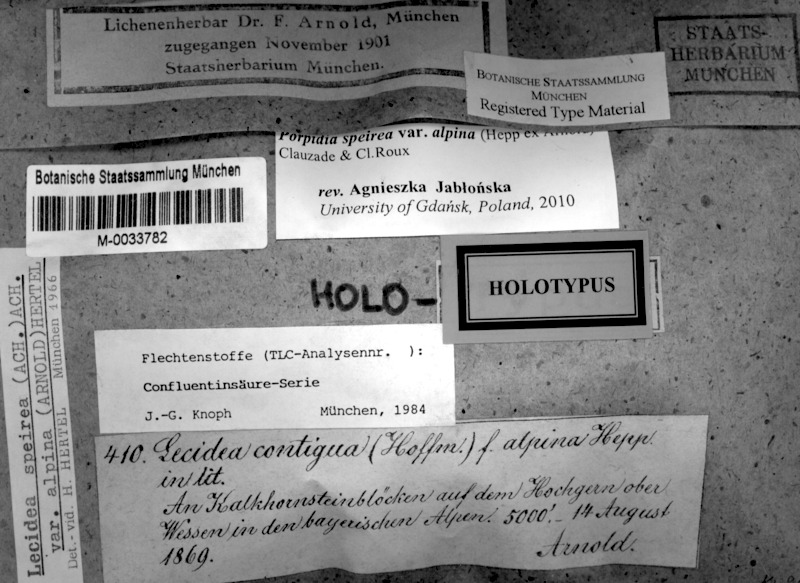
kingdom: Fungi
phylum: Ascomycota
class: Lecanoromycetes
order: Lecideales
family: Lecideaceae
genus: Porpidia
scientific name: Porpidia speirea
